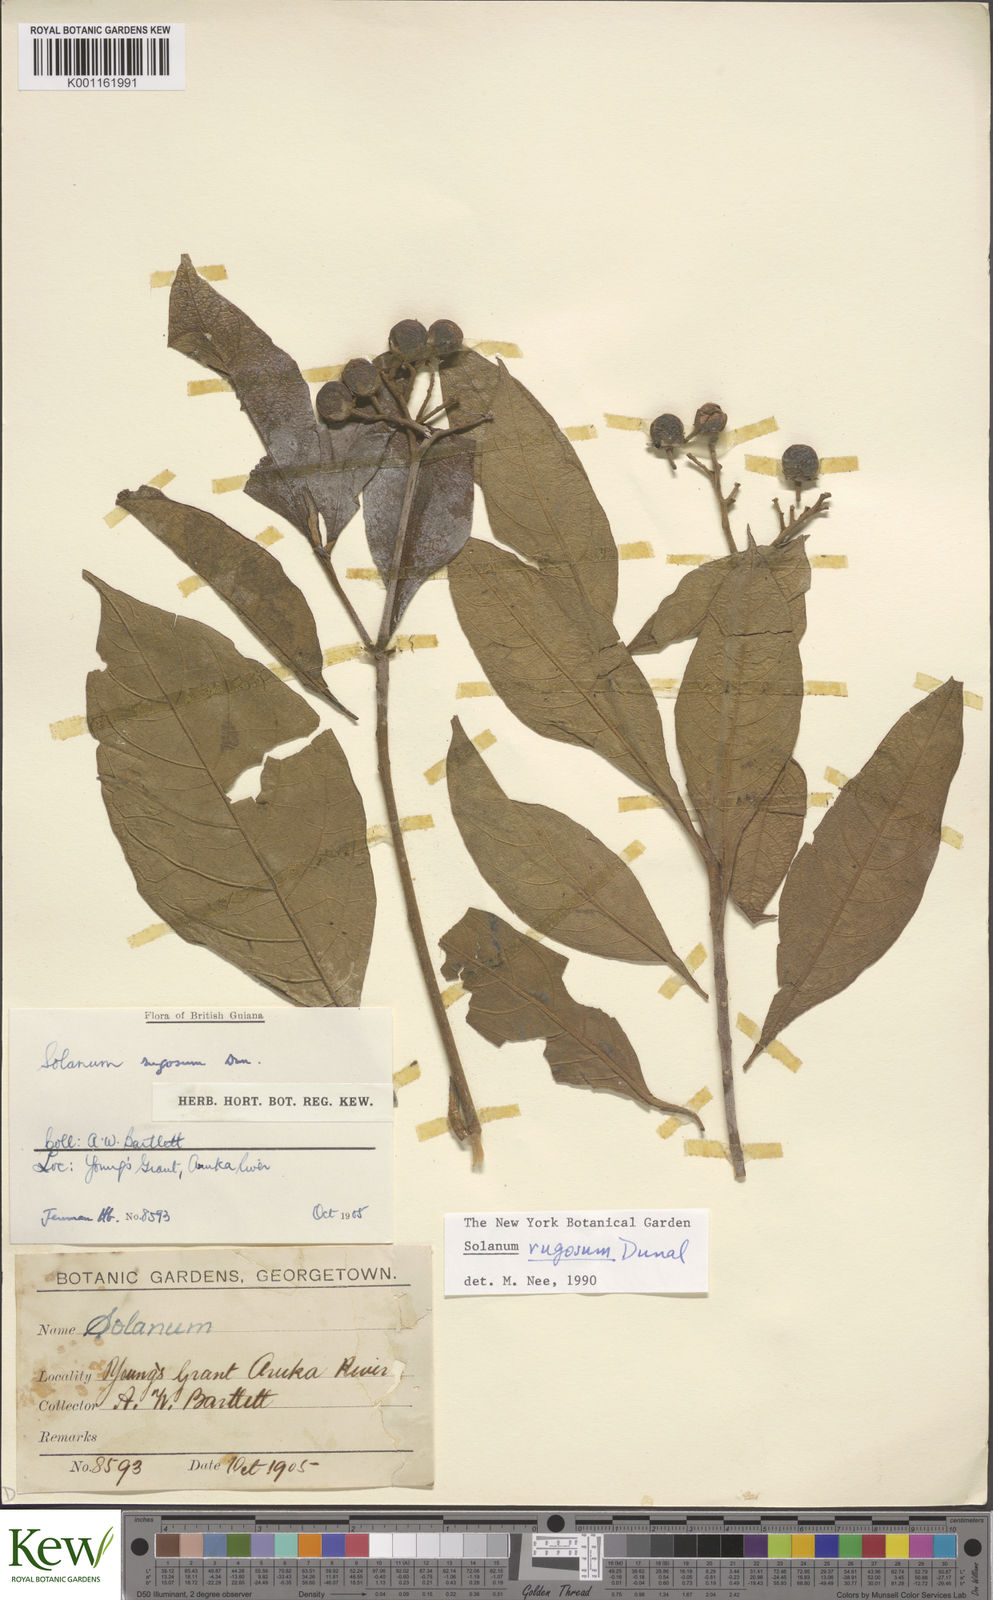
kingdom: Plantae
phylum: Tracheophyta
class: Magnoliopsida
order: Solanales
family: Solanaceae
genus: Solanum
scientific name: Solanum rugosum
